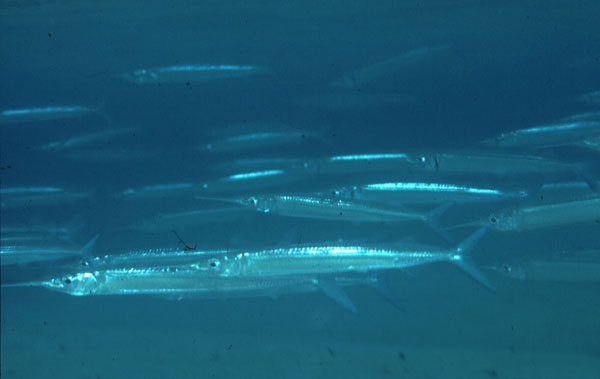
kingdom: Animalia
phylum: Chordata
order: Beloniformes
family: Hemiramphidae
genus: Hyporhamphus
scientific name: Hyporhamphus dussumieri
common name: Dussumier's halfbeak
